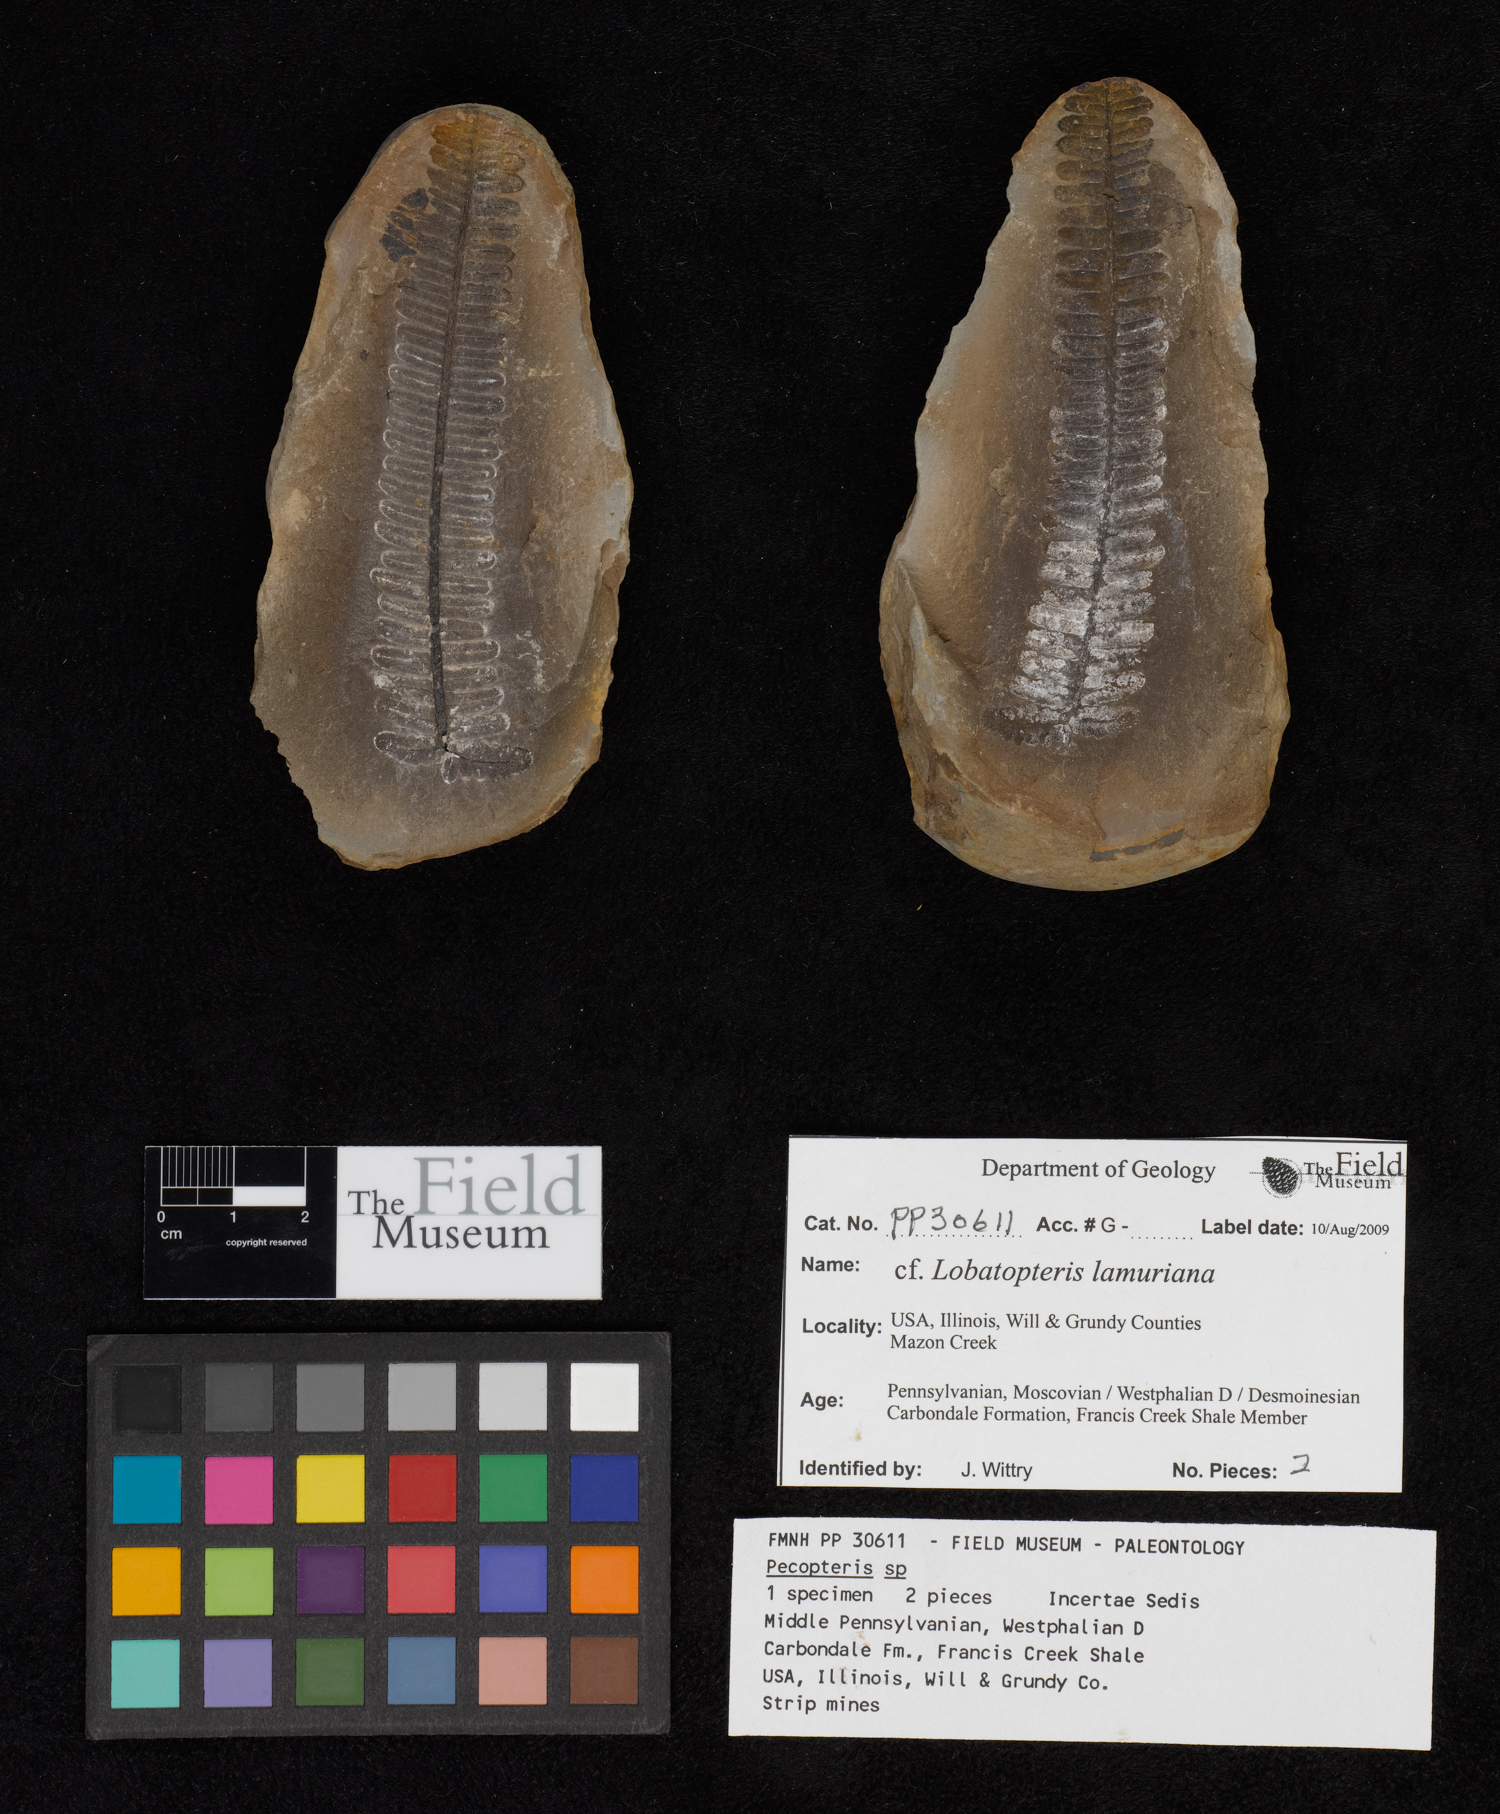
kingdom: Plantae
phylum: Tracheophyta
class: Polypodiopsida
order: Marattiales
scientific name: Marattiales
